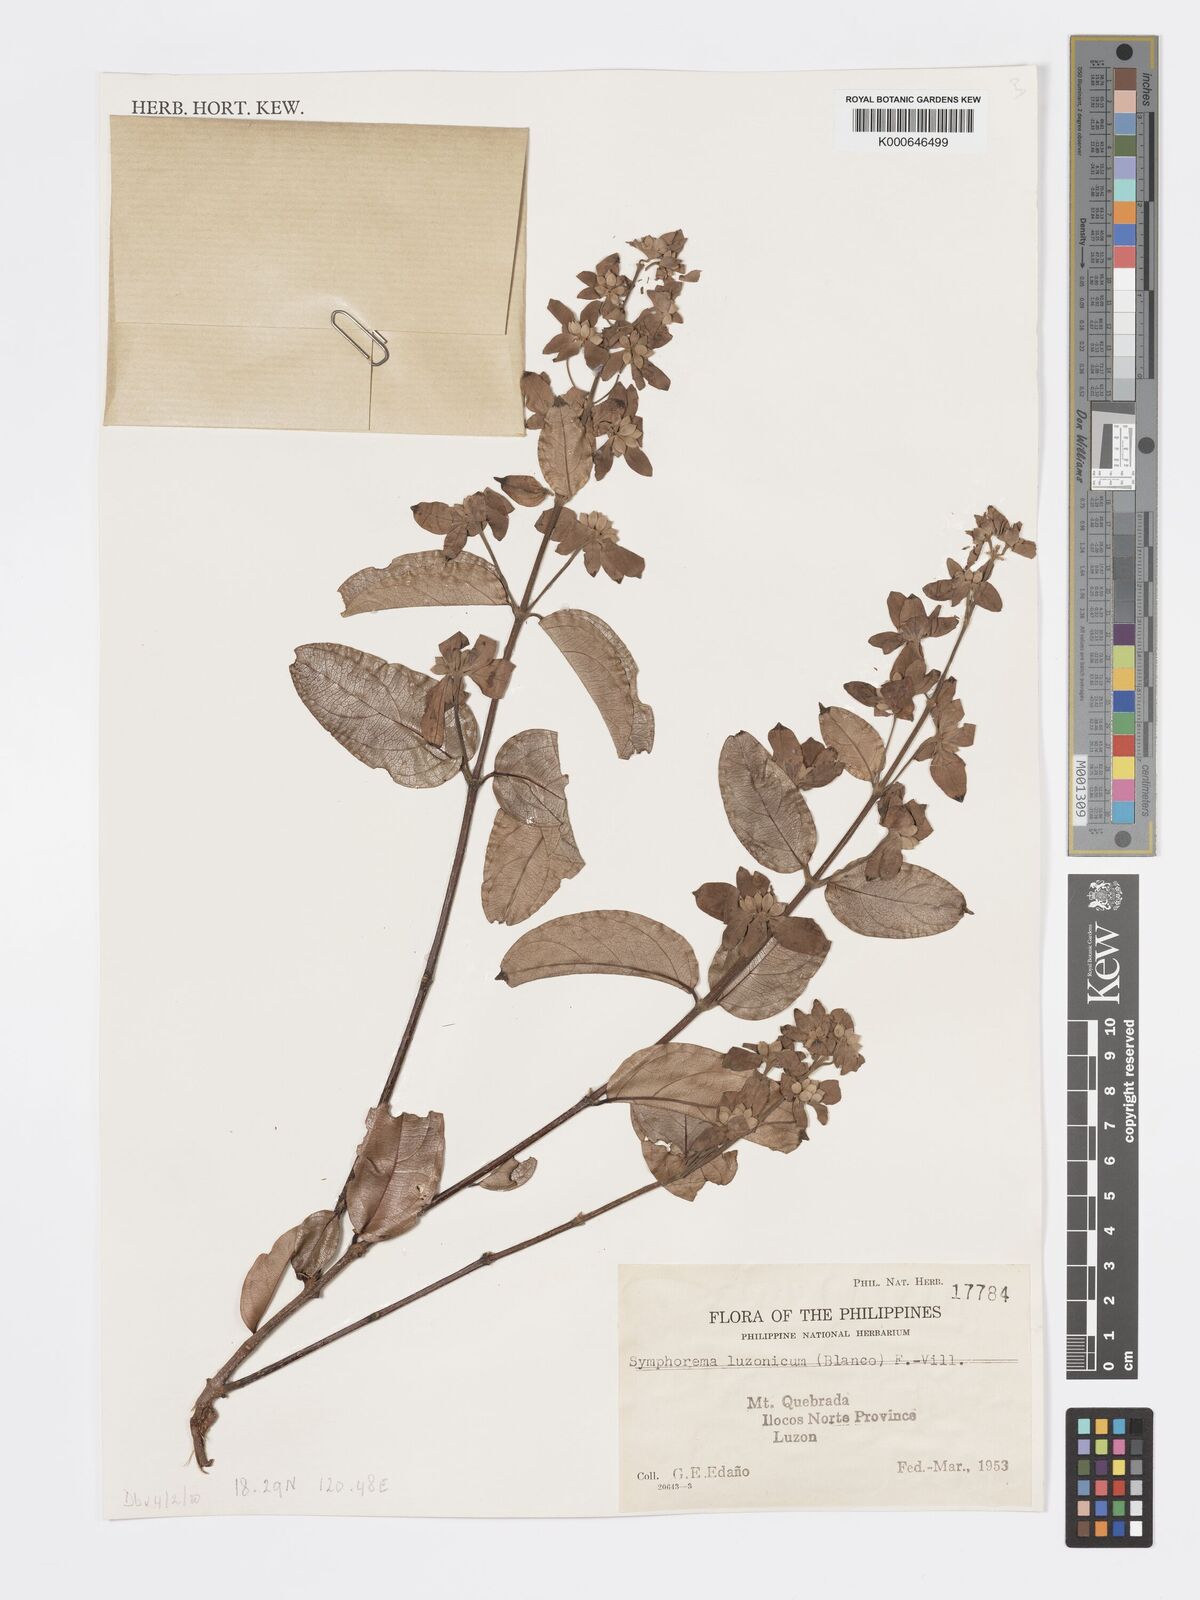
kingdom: Plantae
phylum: Tracheophyta
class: Magnoliopsida
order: Lamiales
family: Lamiaceae
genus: Symphorema
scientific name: Symphorema luzonicum
